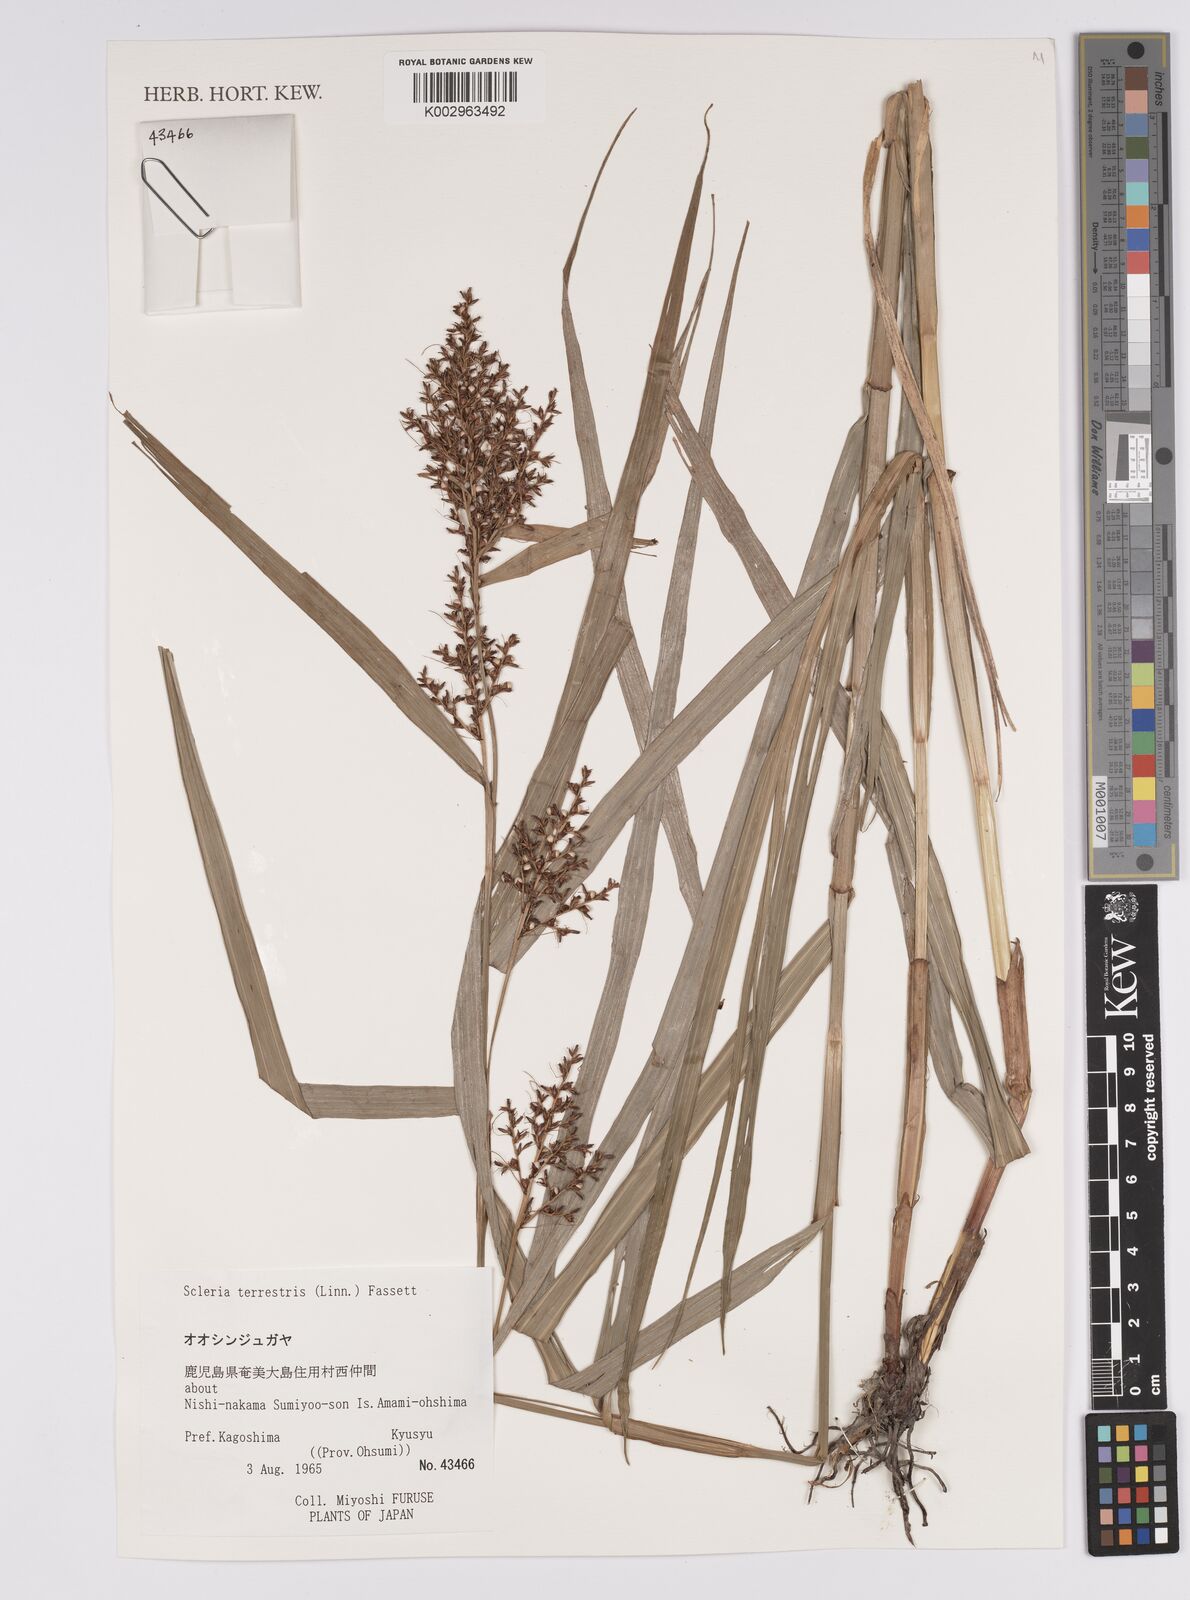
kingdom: Plantae
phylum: Tracheophyta
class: Liliopsida
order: Poales
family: Cyperaceae
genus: Scleria
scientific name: Scleria terrestris
